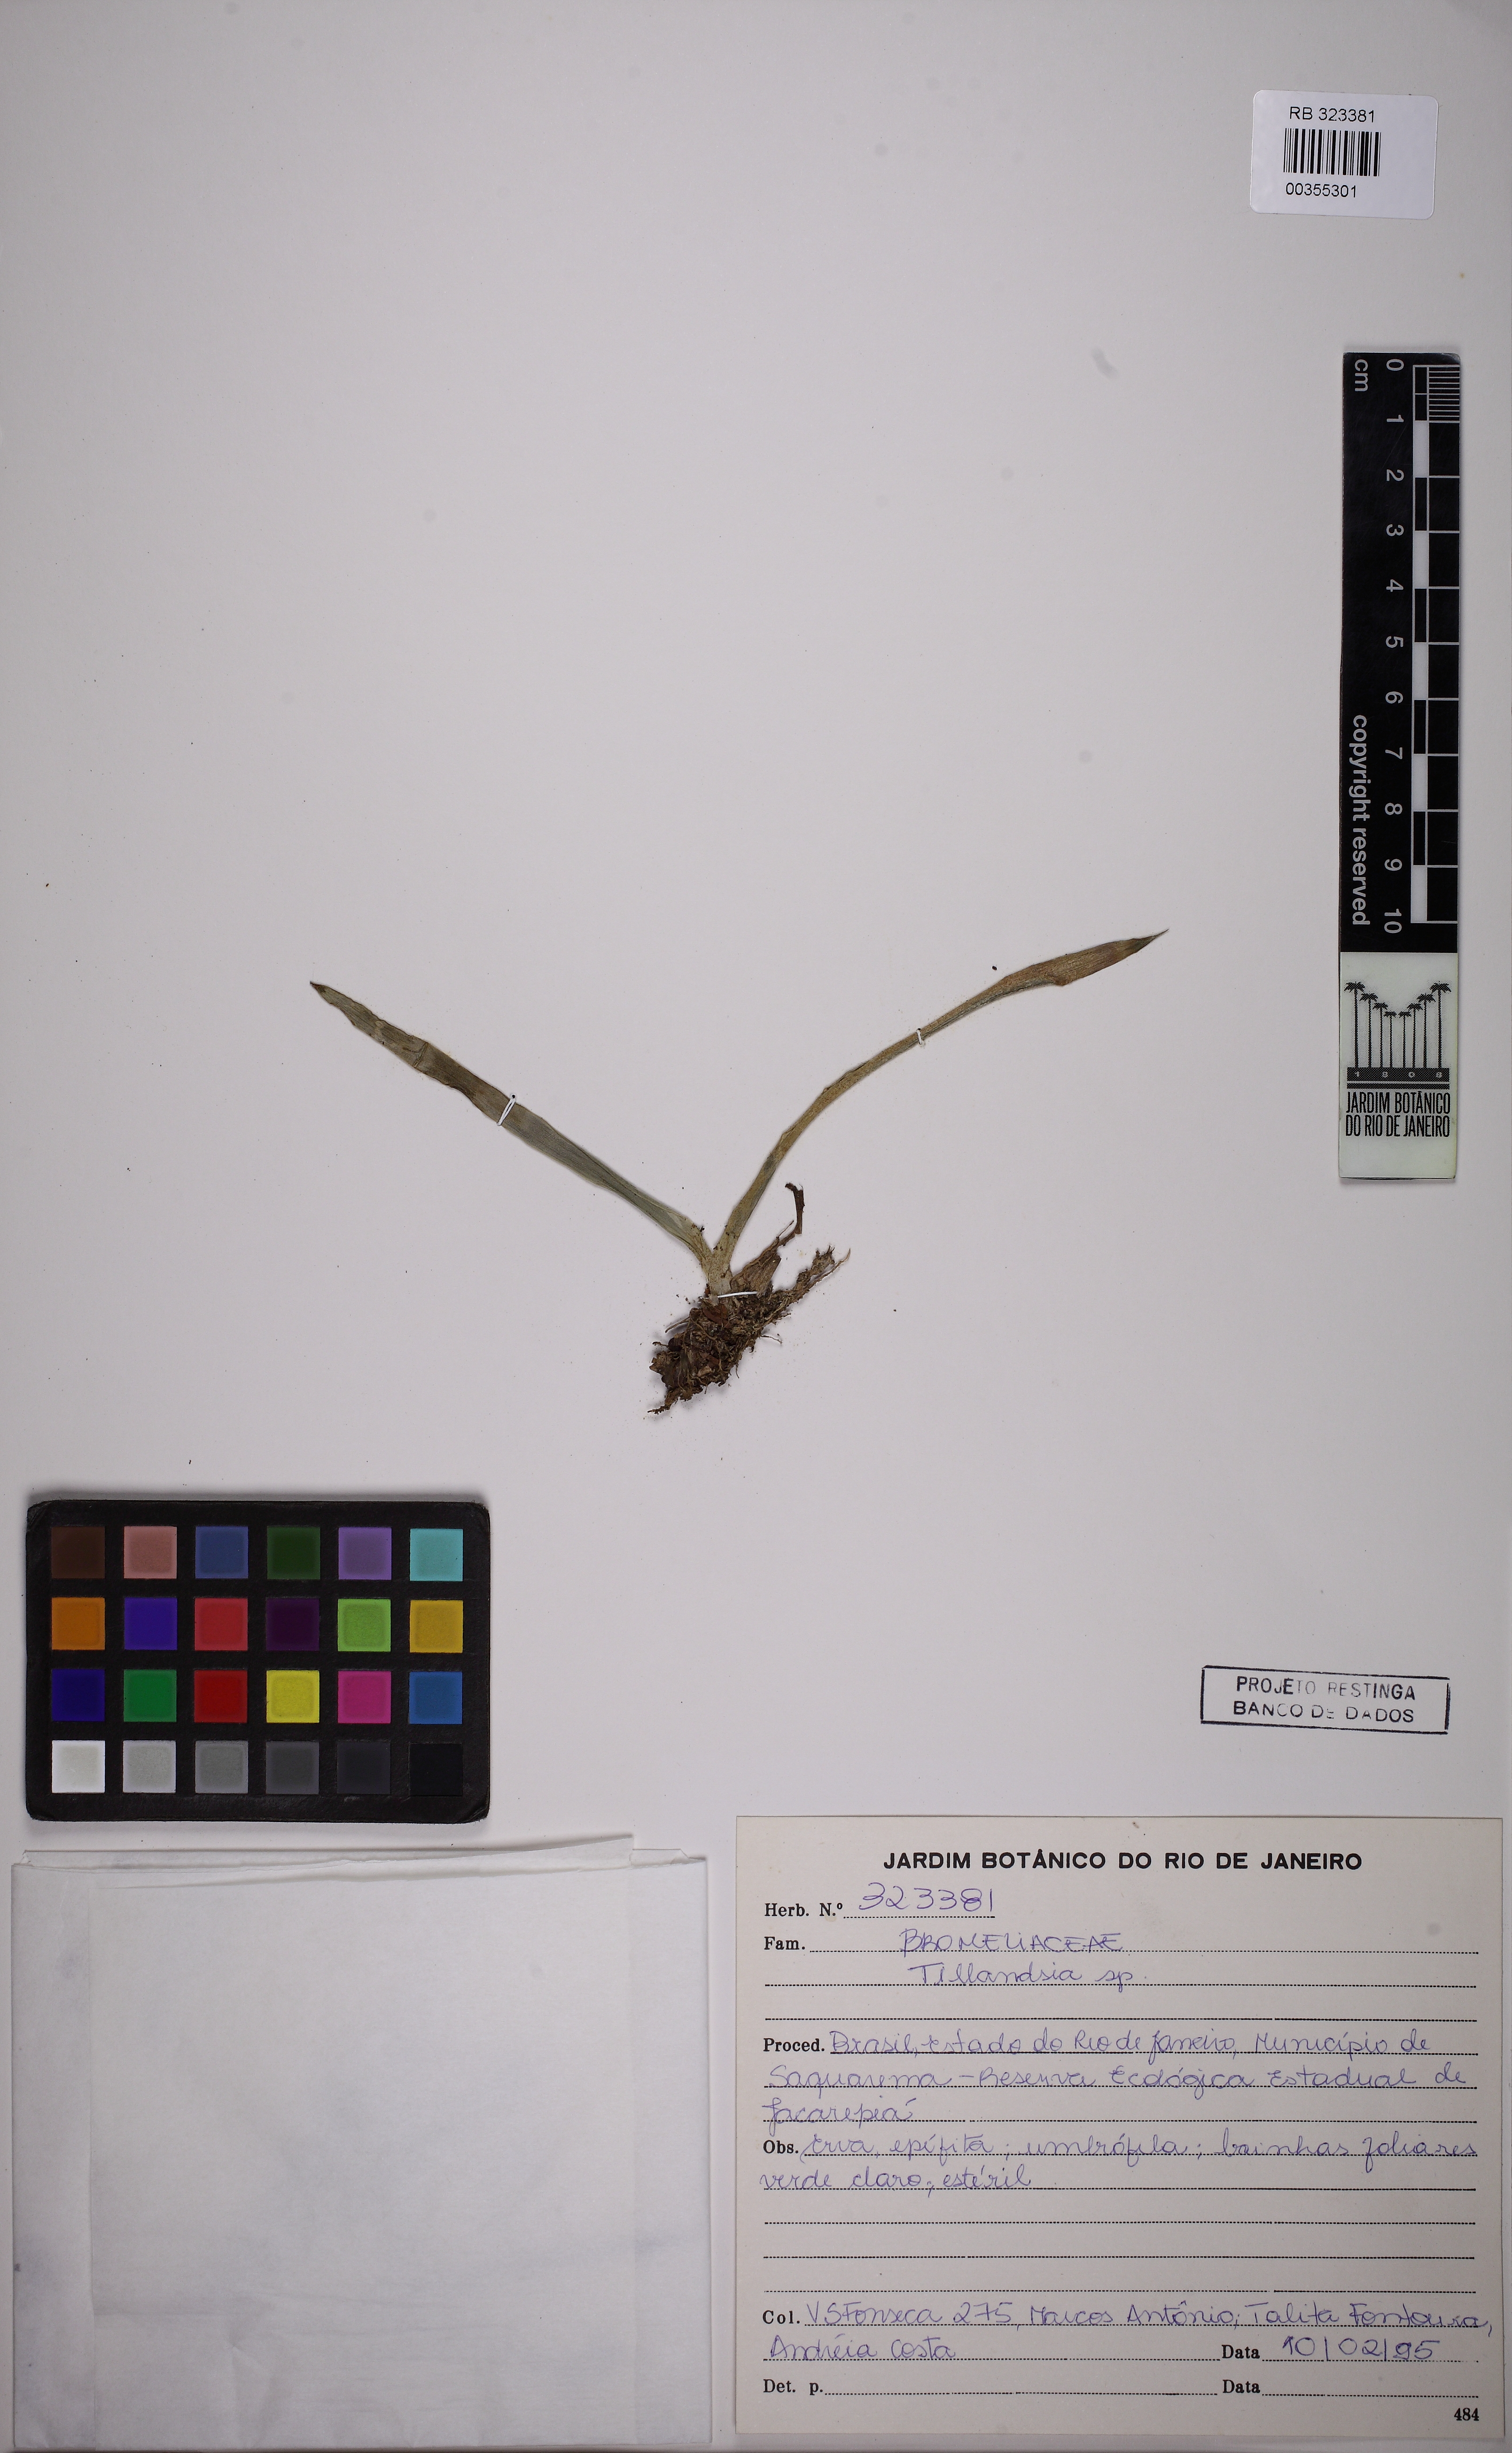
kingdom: Plantae
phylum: Tracheophyta
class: Liliopsida
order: Poales
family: Bromeliaceae
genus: Tillandsia
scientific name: Tillandsia
